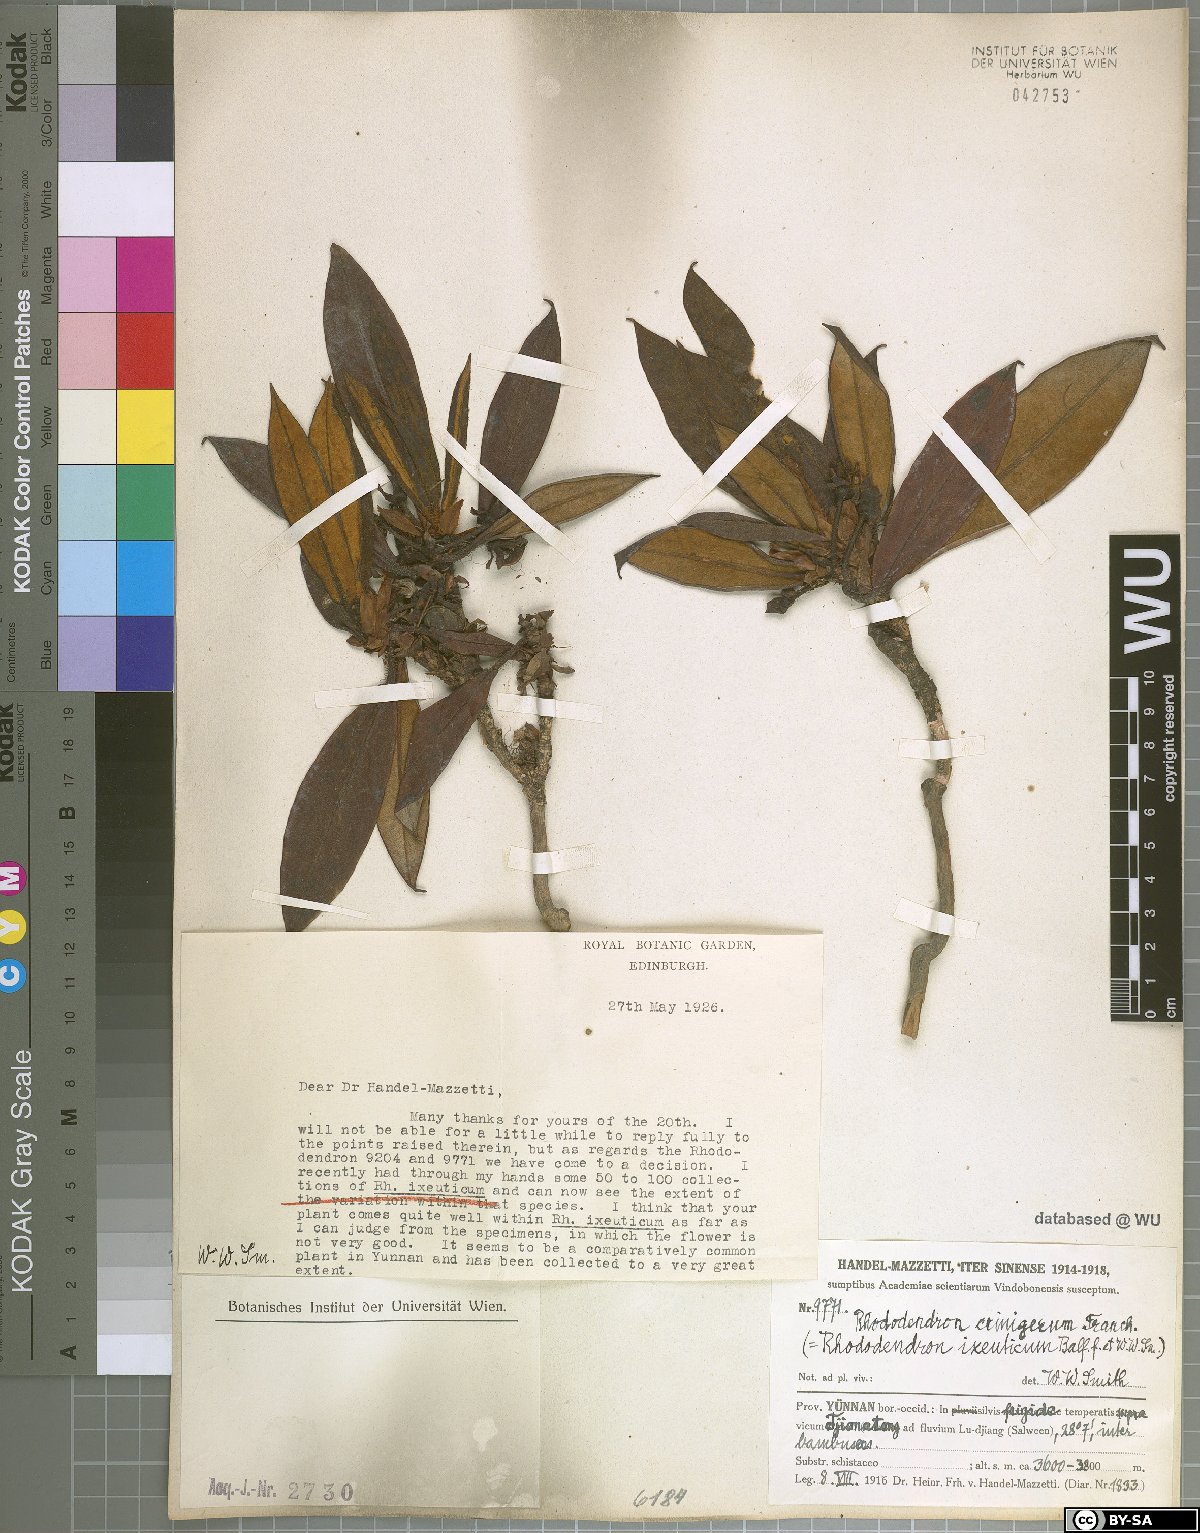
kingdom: Plantae
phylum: Tracheophyta
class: Magnoliopsida
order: Ericales
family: Ericaceae
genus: Rhododendron
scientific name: Rhododendron crinigerum
